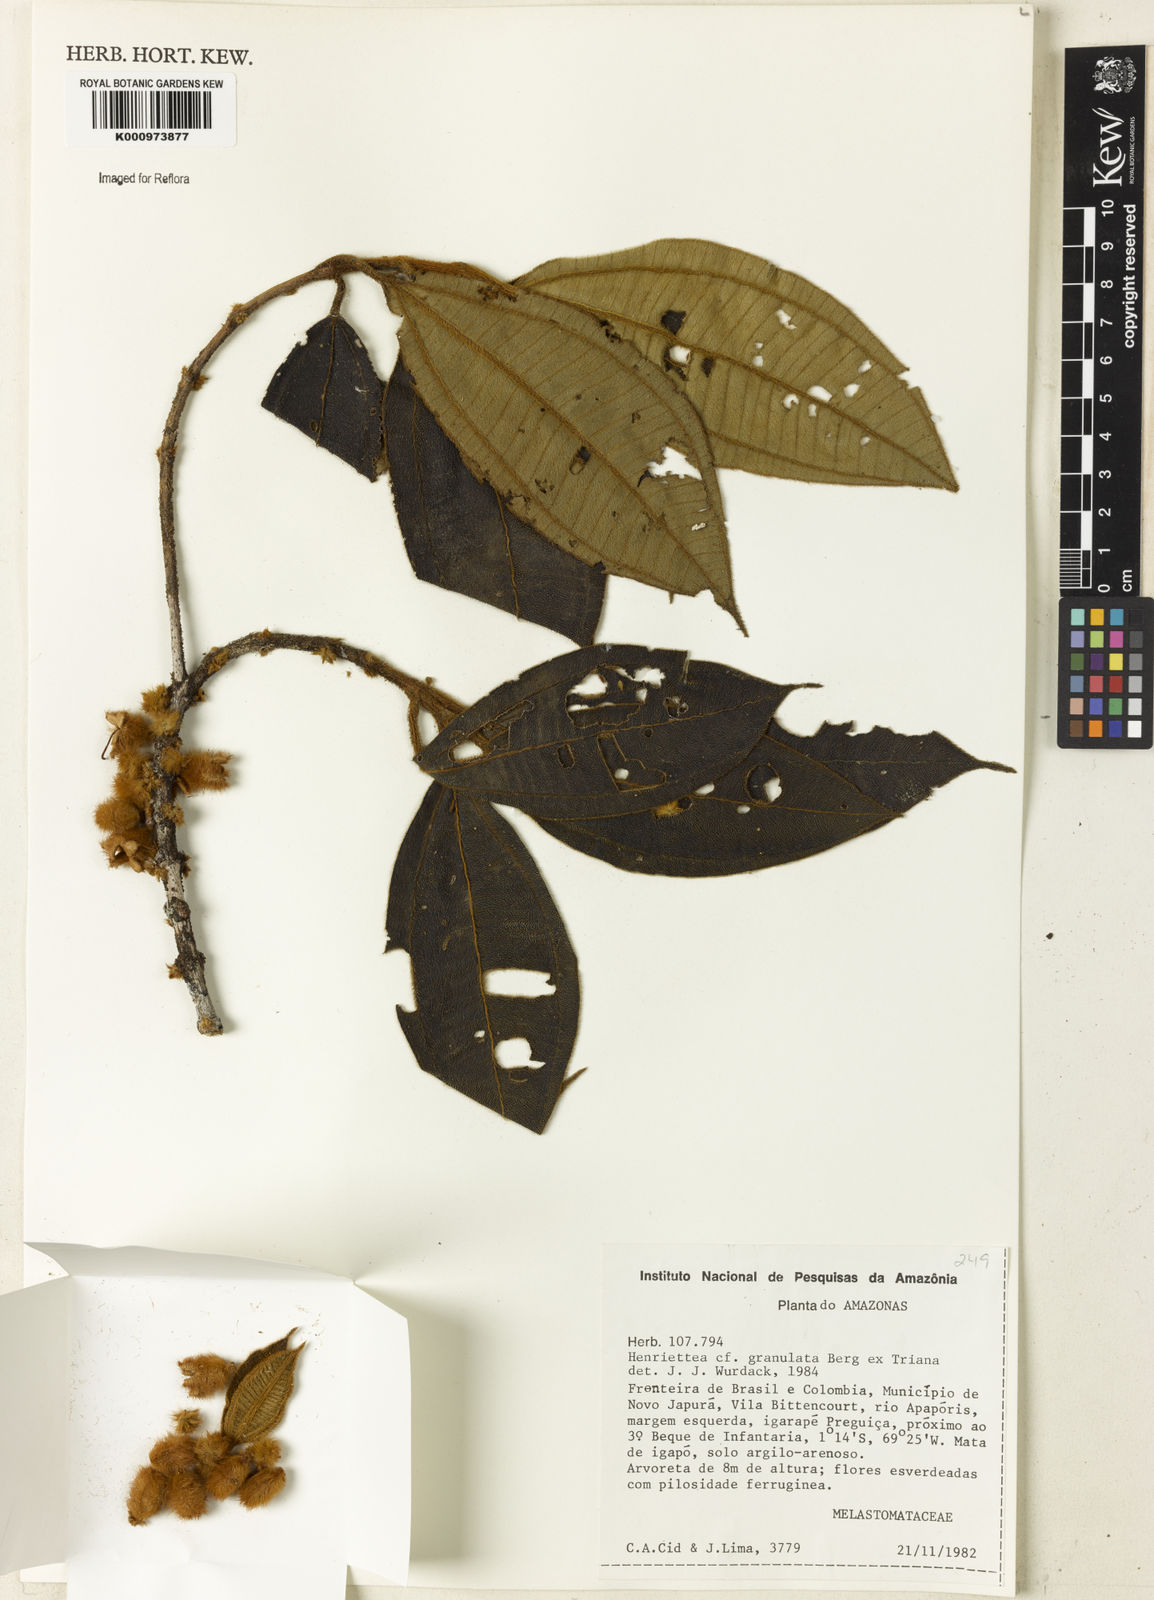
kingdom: Plantae
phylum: Tracheophyta
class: Magnoliopsida
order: Myrtales
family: Melastomataceae
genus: Henriettea
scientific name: Henriettea granulata
